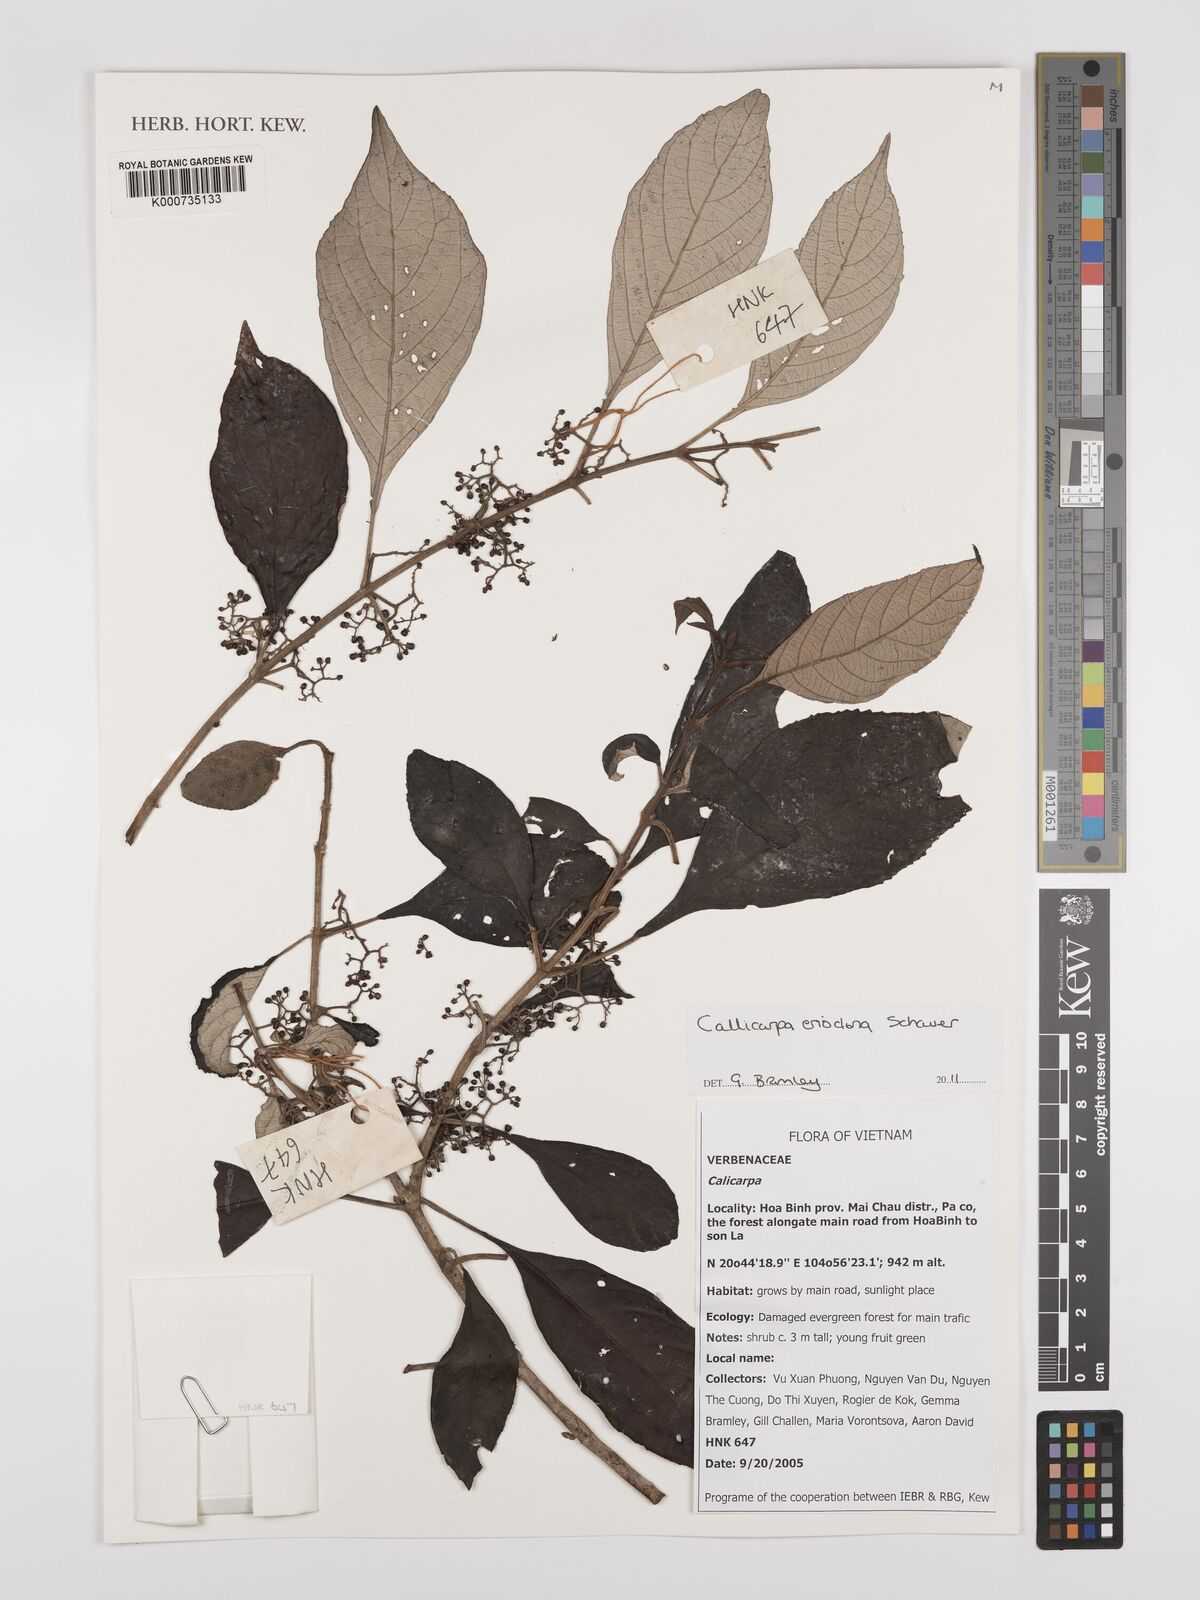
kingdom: Plantae
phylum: Tracheophyta
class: Magnoliopsida
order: Lamiales
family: Lamiaceae
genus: Callicarpa
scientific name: Callicarpa erioclona
